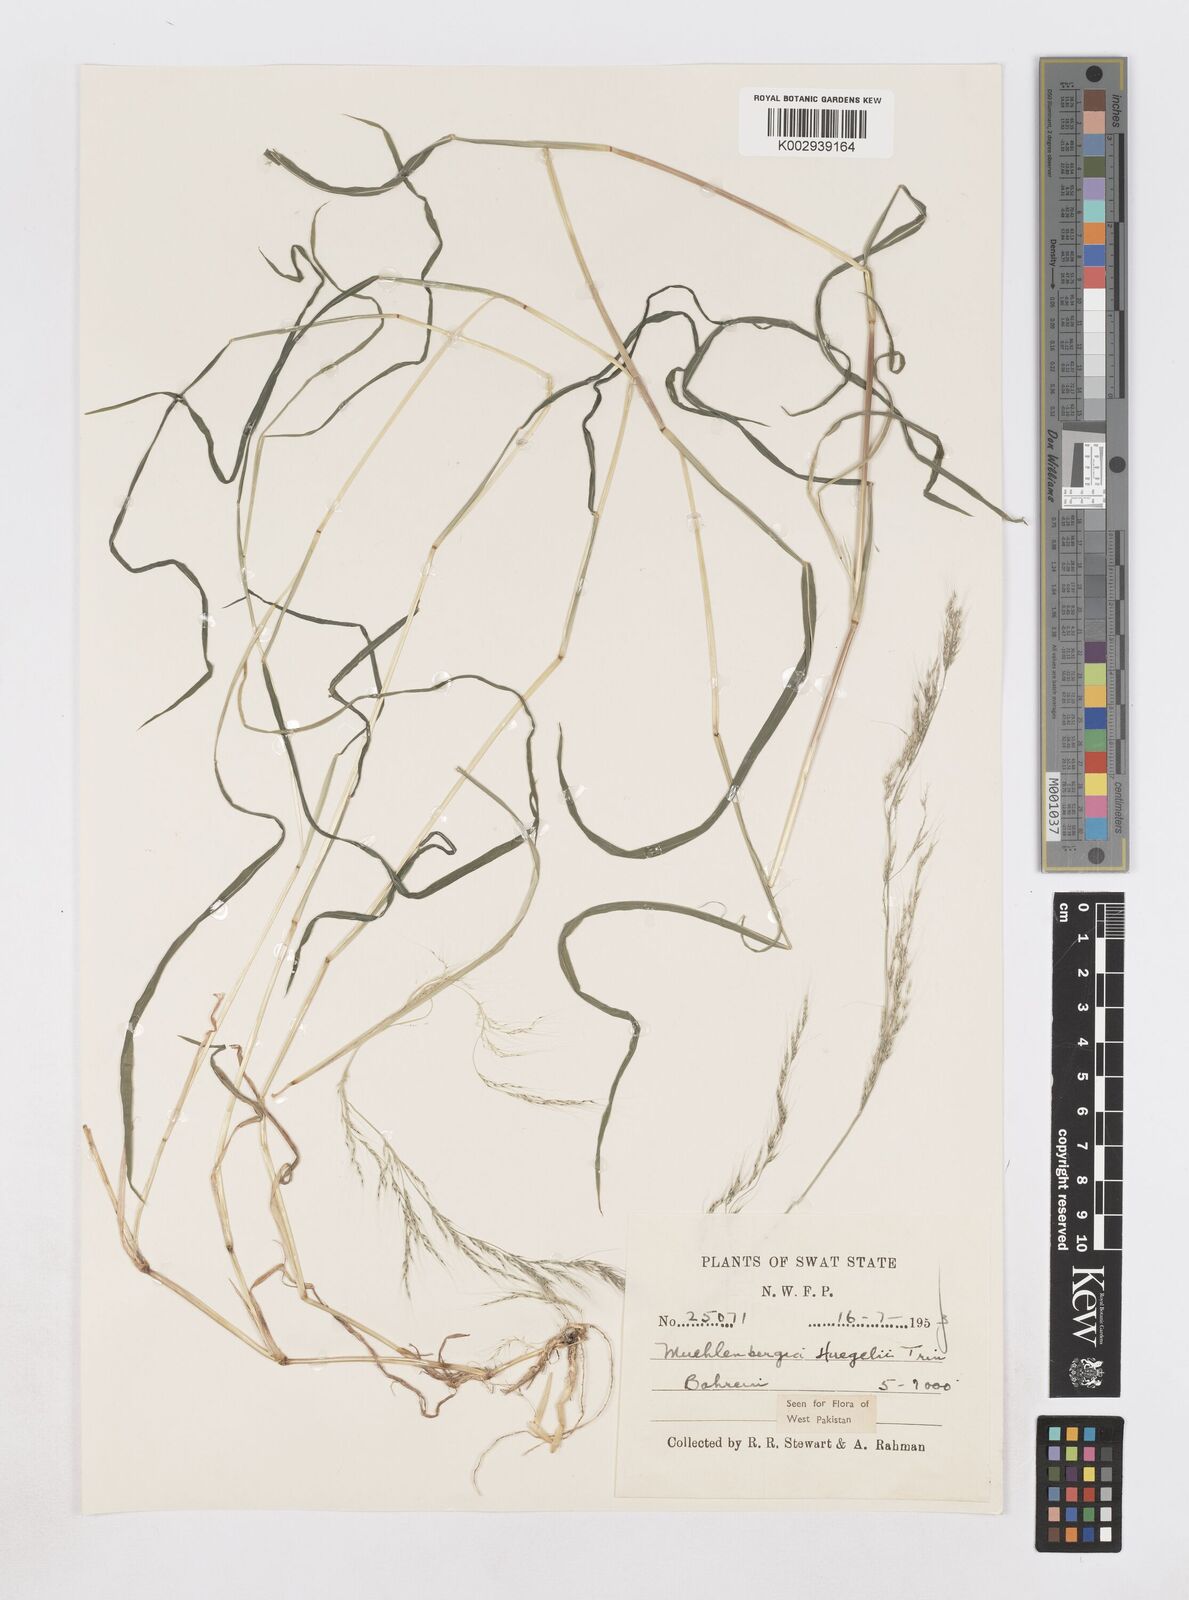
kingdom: Plantae
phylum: Tracheophyta
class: Liliopsida
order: Poales
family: Poaceae
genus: Muhlenbergia
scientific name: Muhlenbergia huegelii
